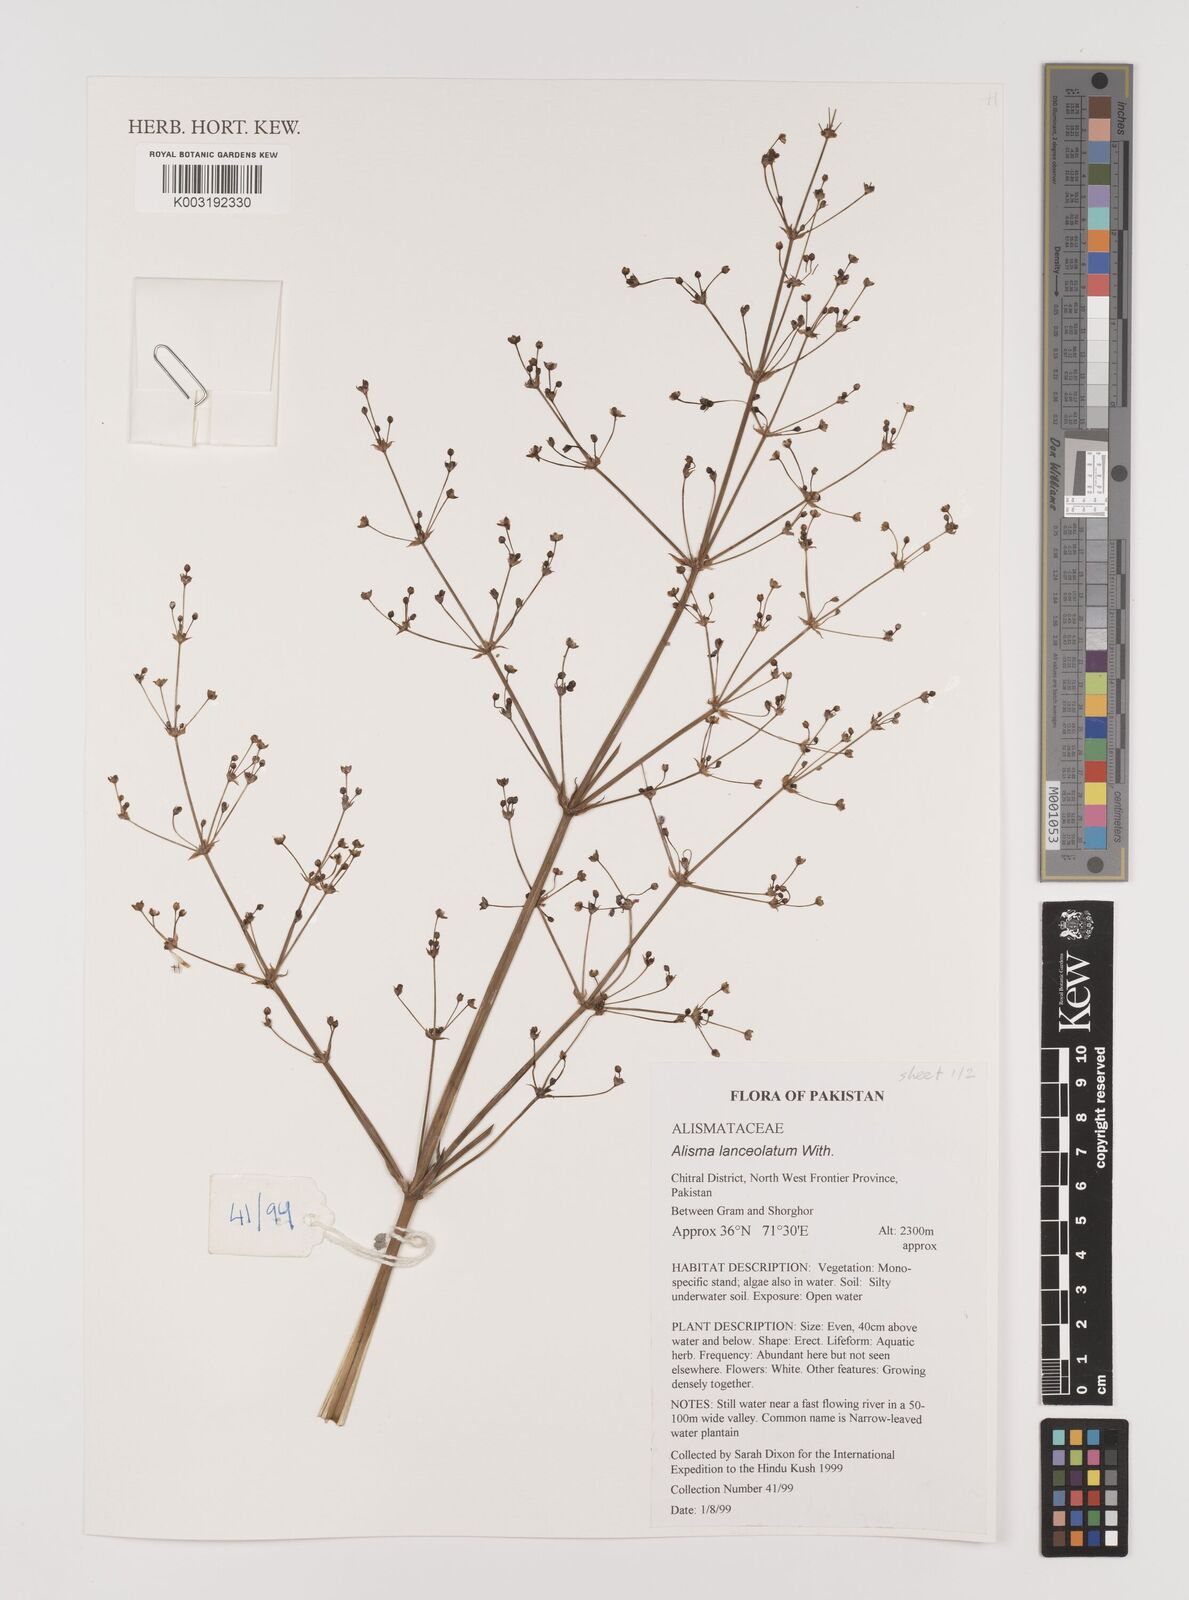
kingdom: Plantae
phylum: Tracheophyta
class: Liliopsida
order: Alismatales
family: Alismataceae
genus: Alisma
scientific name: Alisma lanceolatum
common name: Narrow-leaved water-plantain
